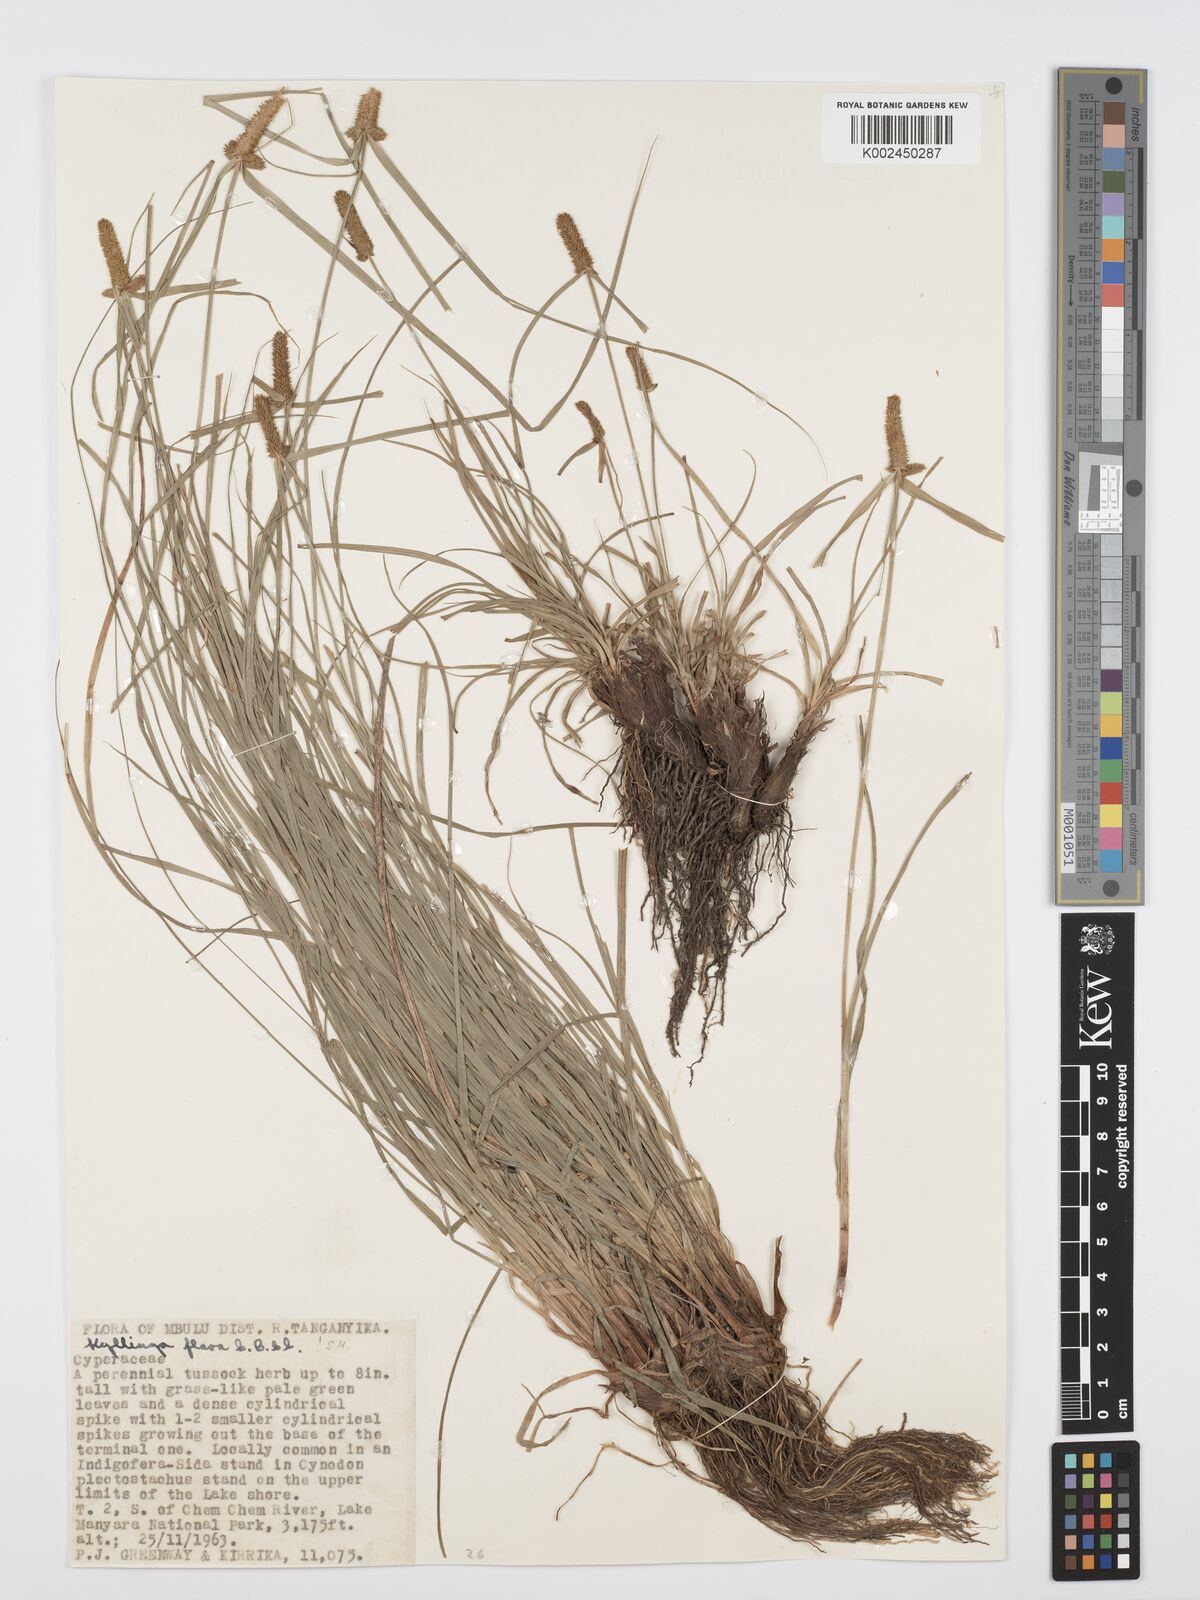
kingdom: Plantae
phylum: Tracheophyta
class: Liliopsida
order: Poales
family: Cyperaceae
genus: Cyperus
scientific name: Cyperus
